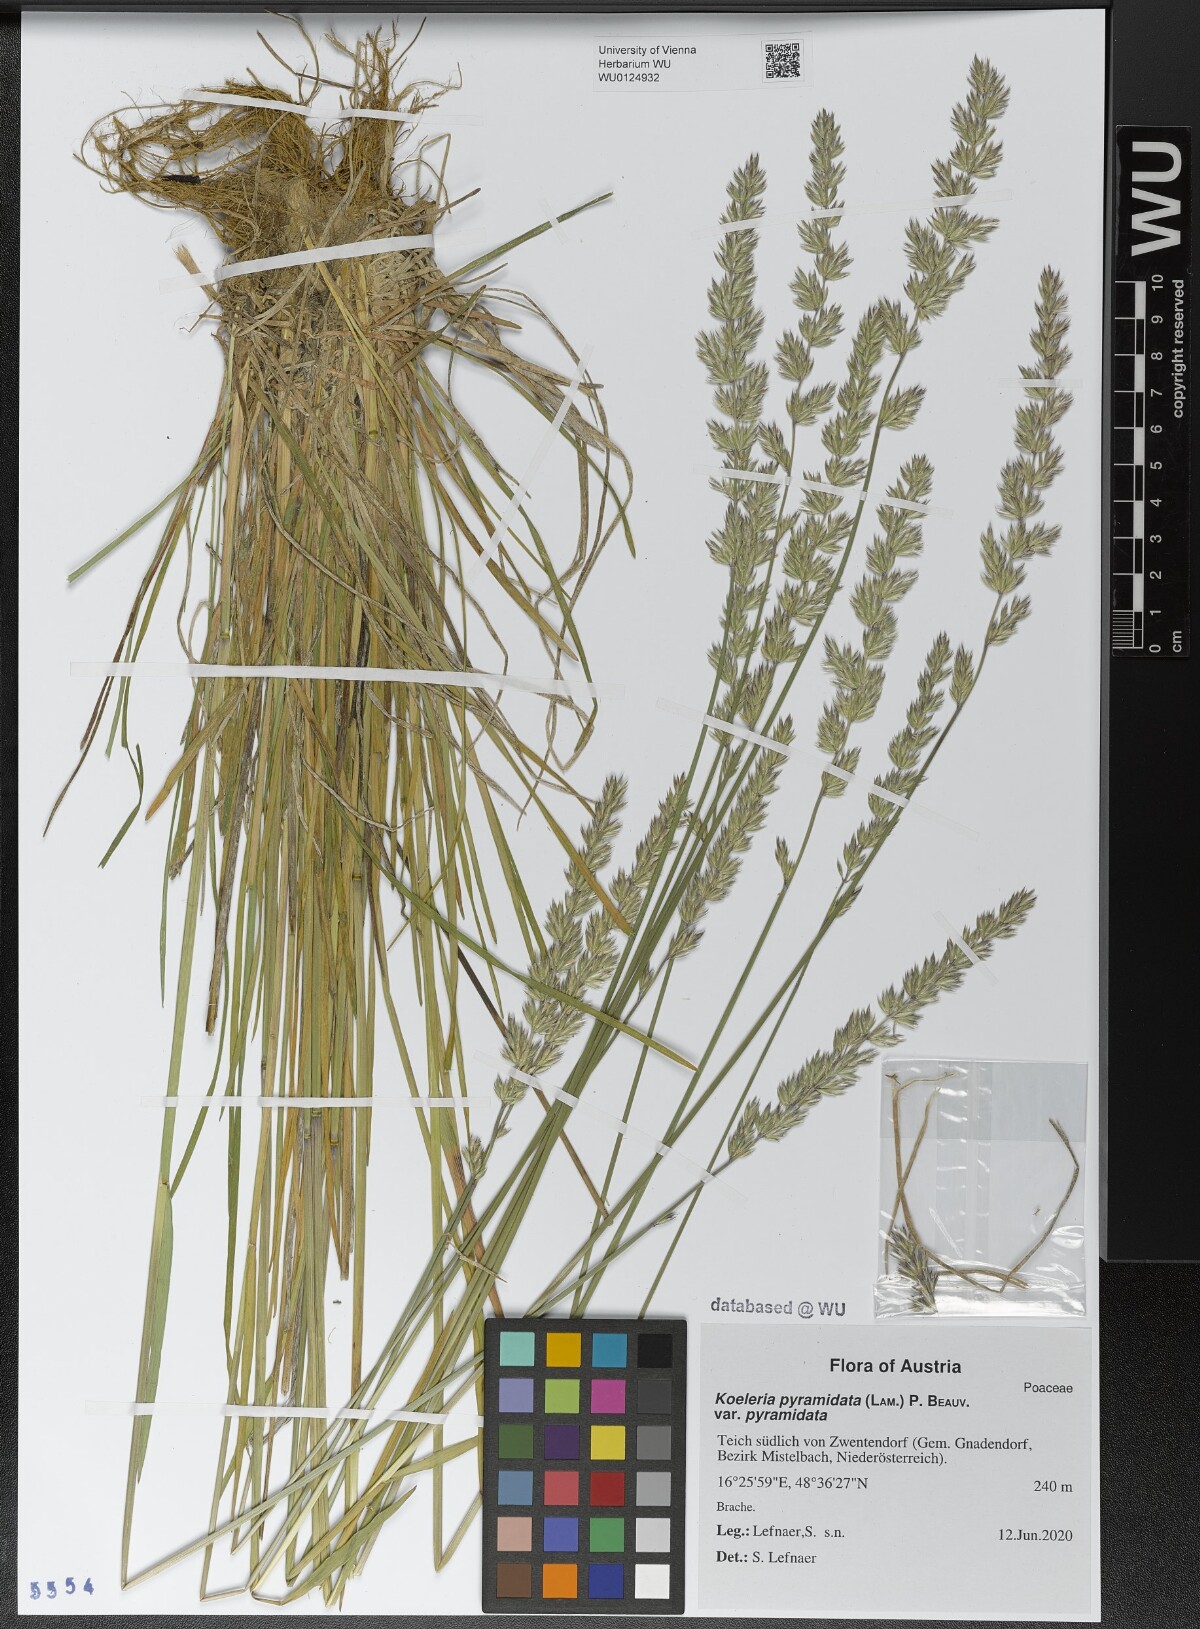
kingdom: Plantae
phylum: Tracheophyta
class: Liliopsida
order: Poales
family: Poaceae
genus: Koeleria
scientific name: Koeleria pyramidata
